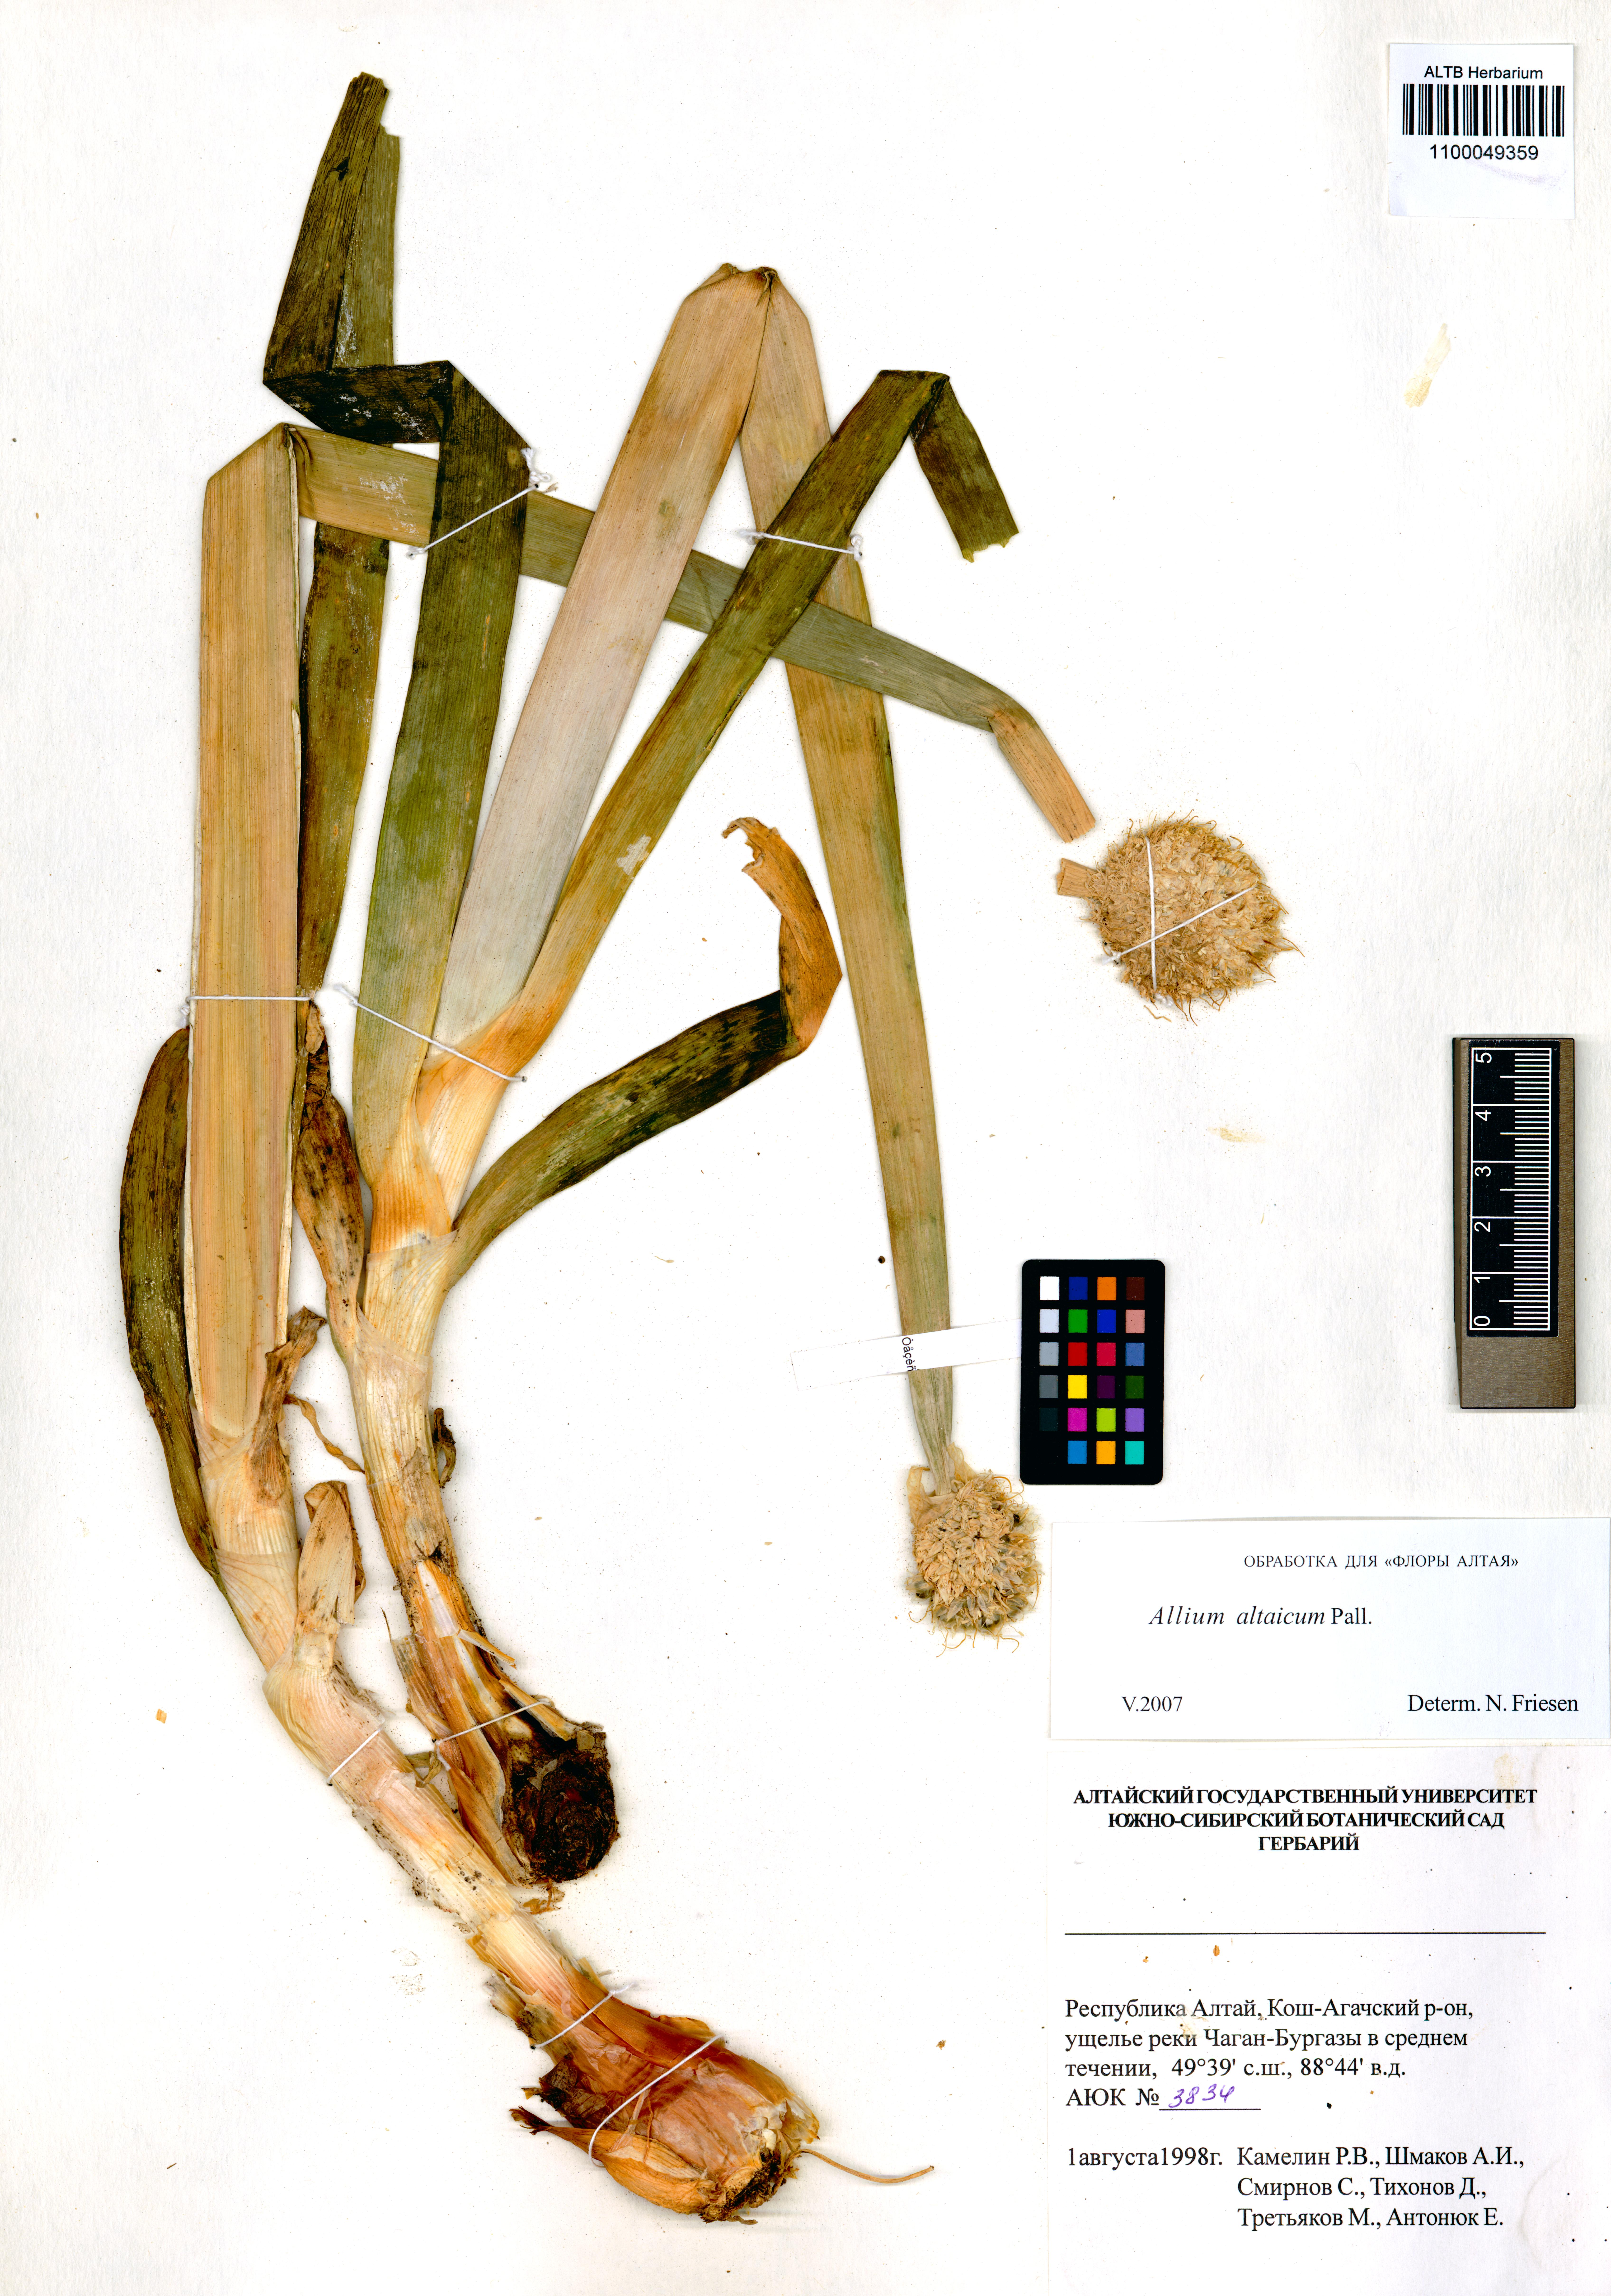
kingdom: Plantae
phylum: Tracheophyta
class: Liliopsida
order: Asparagales
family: Amaryllidaceae
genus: Allium
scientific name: Allium altaicum
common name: Altai onion
